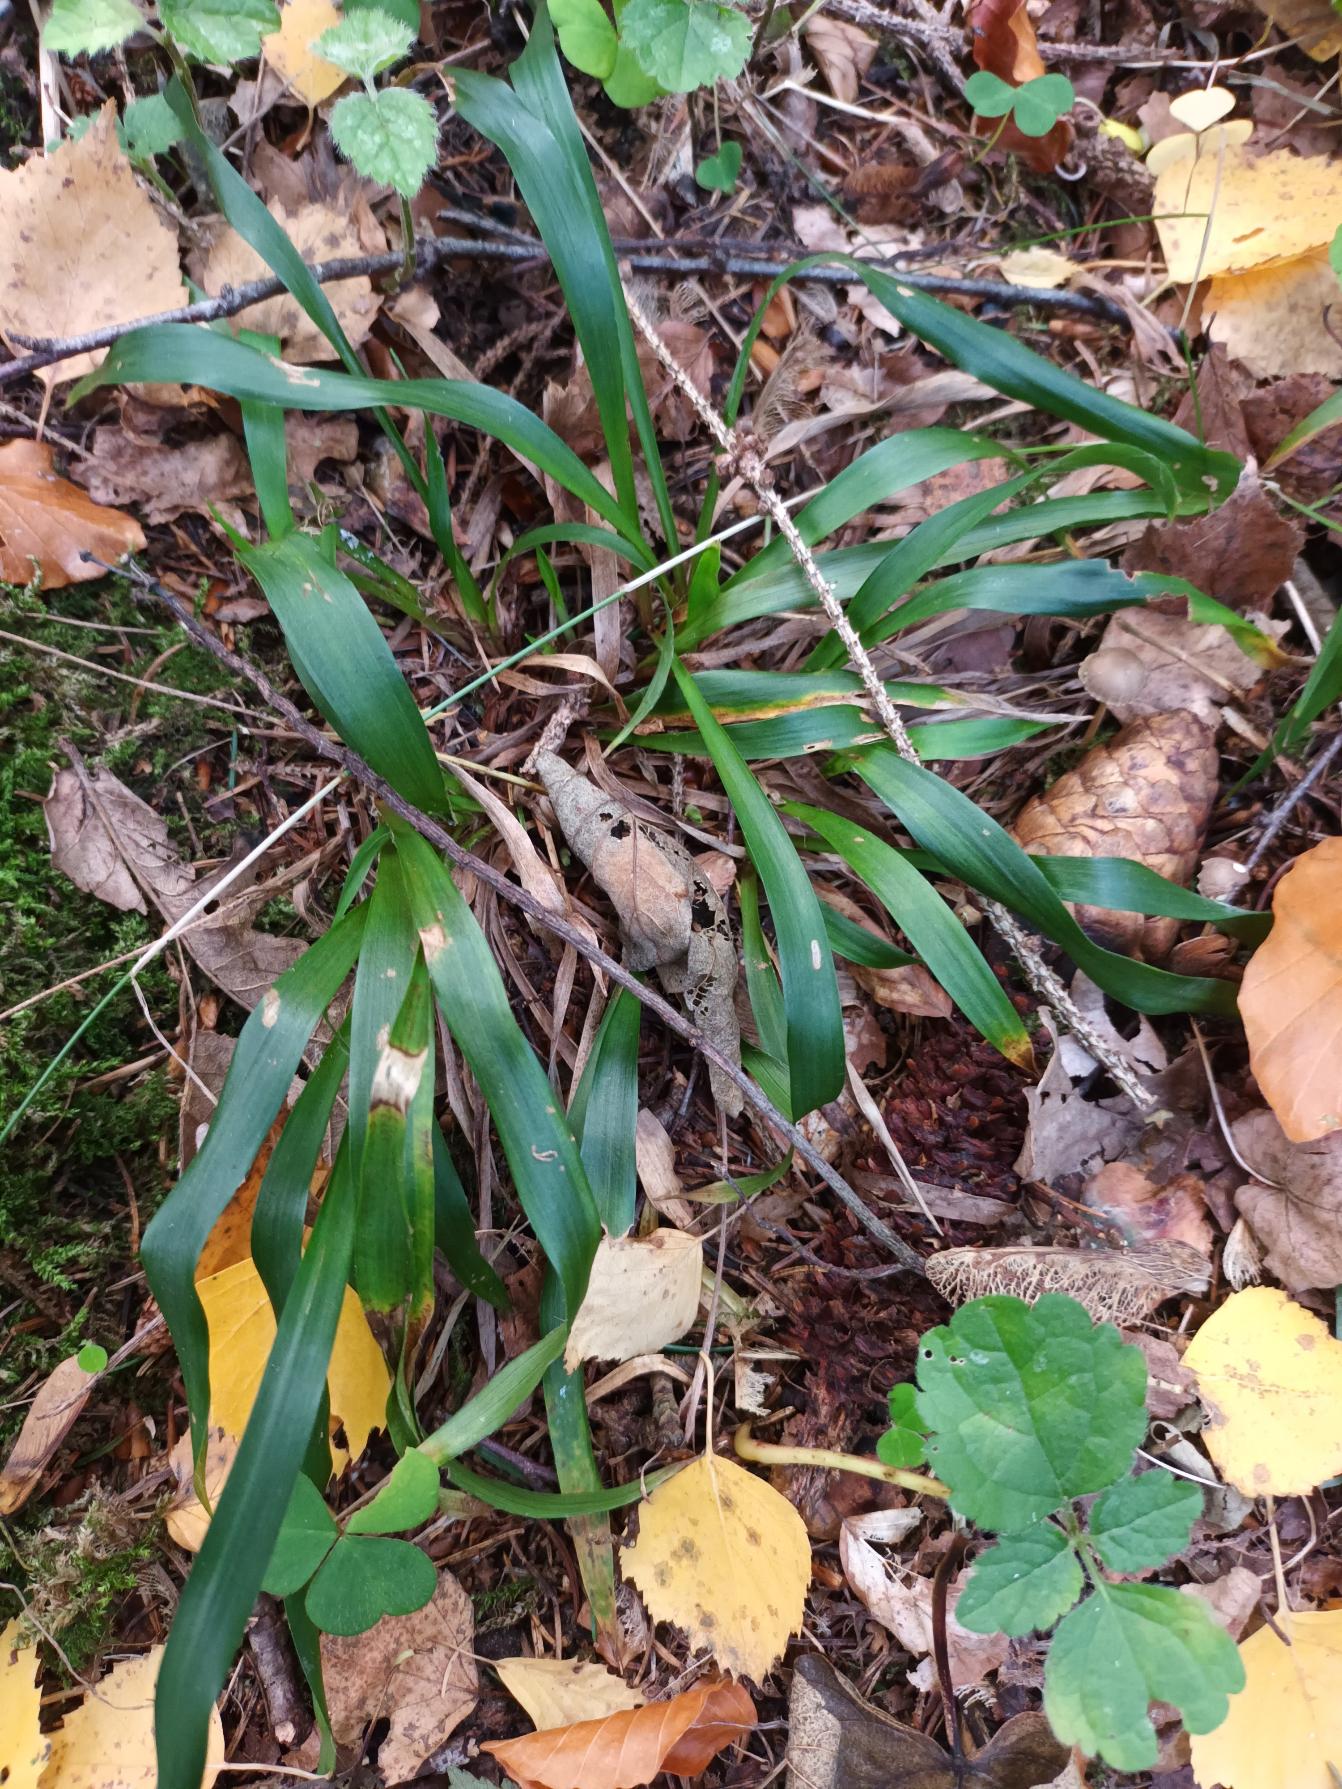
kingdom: Plantae
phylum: Tracheophyta
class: Liliopsida
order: Poales
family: Juncaceae
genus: Luzula
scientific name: Luzula pilosa
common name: Håret frytle
